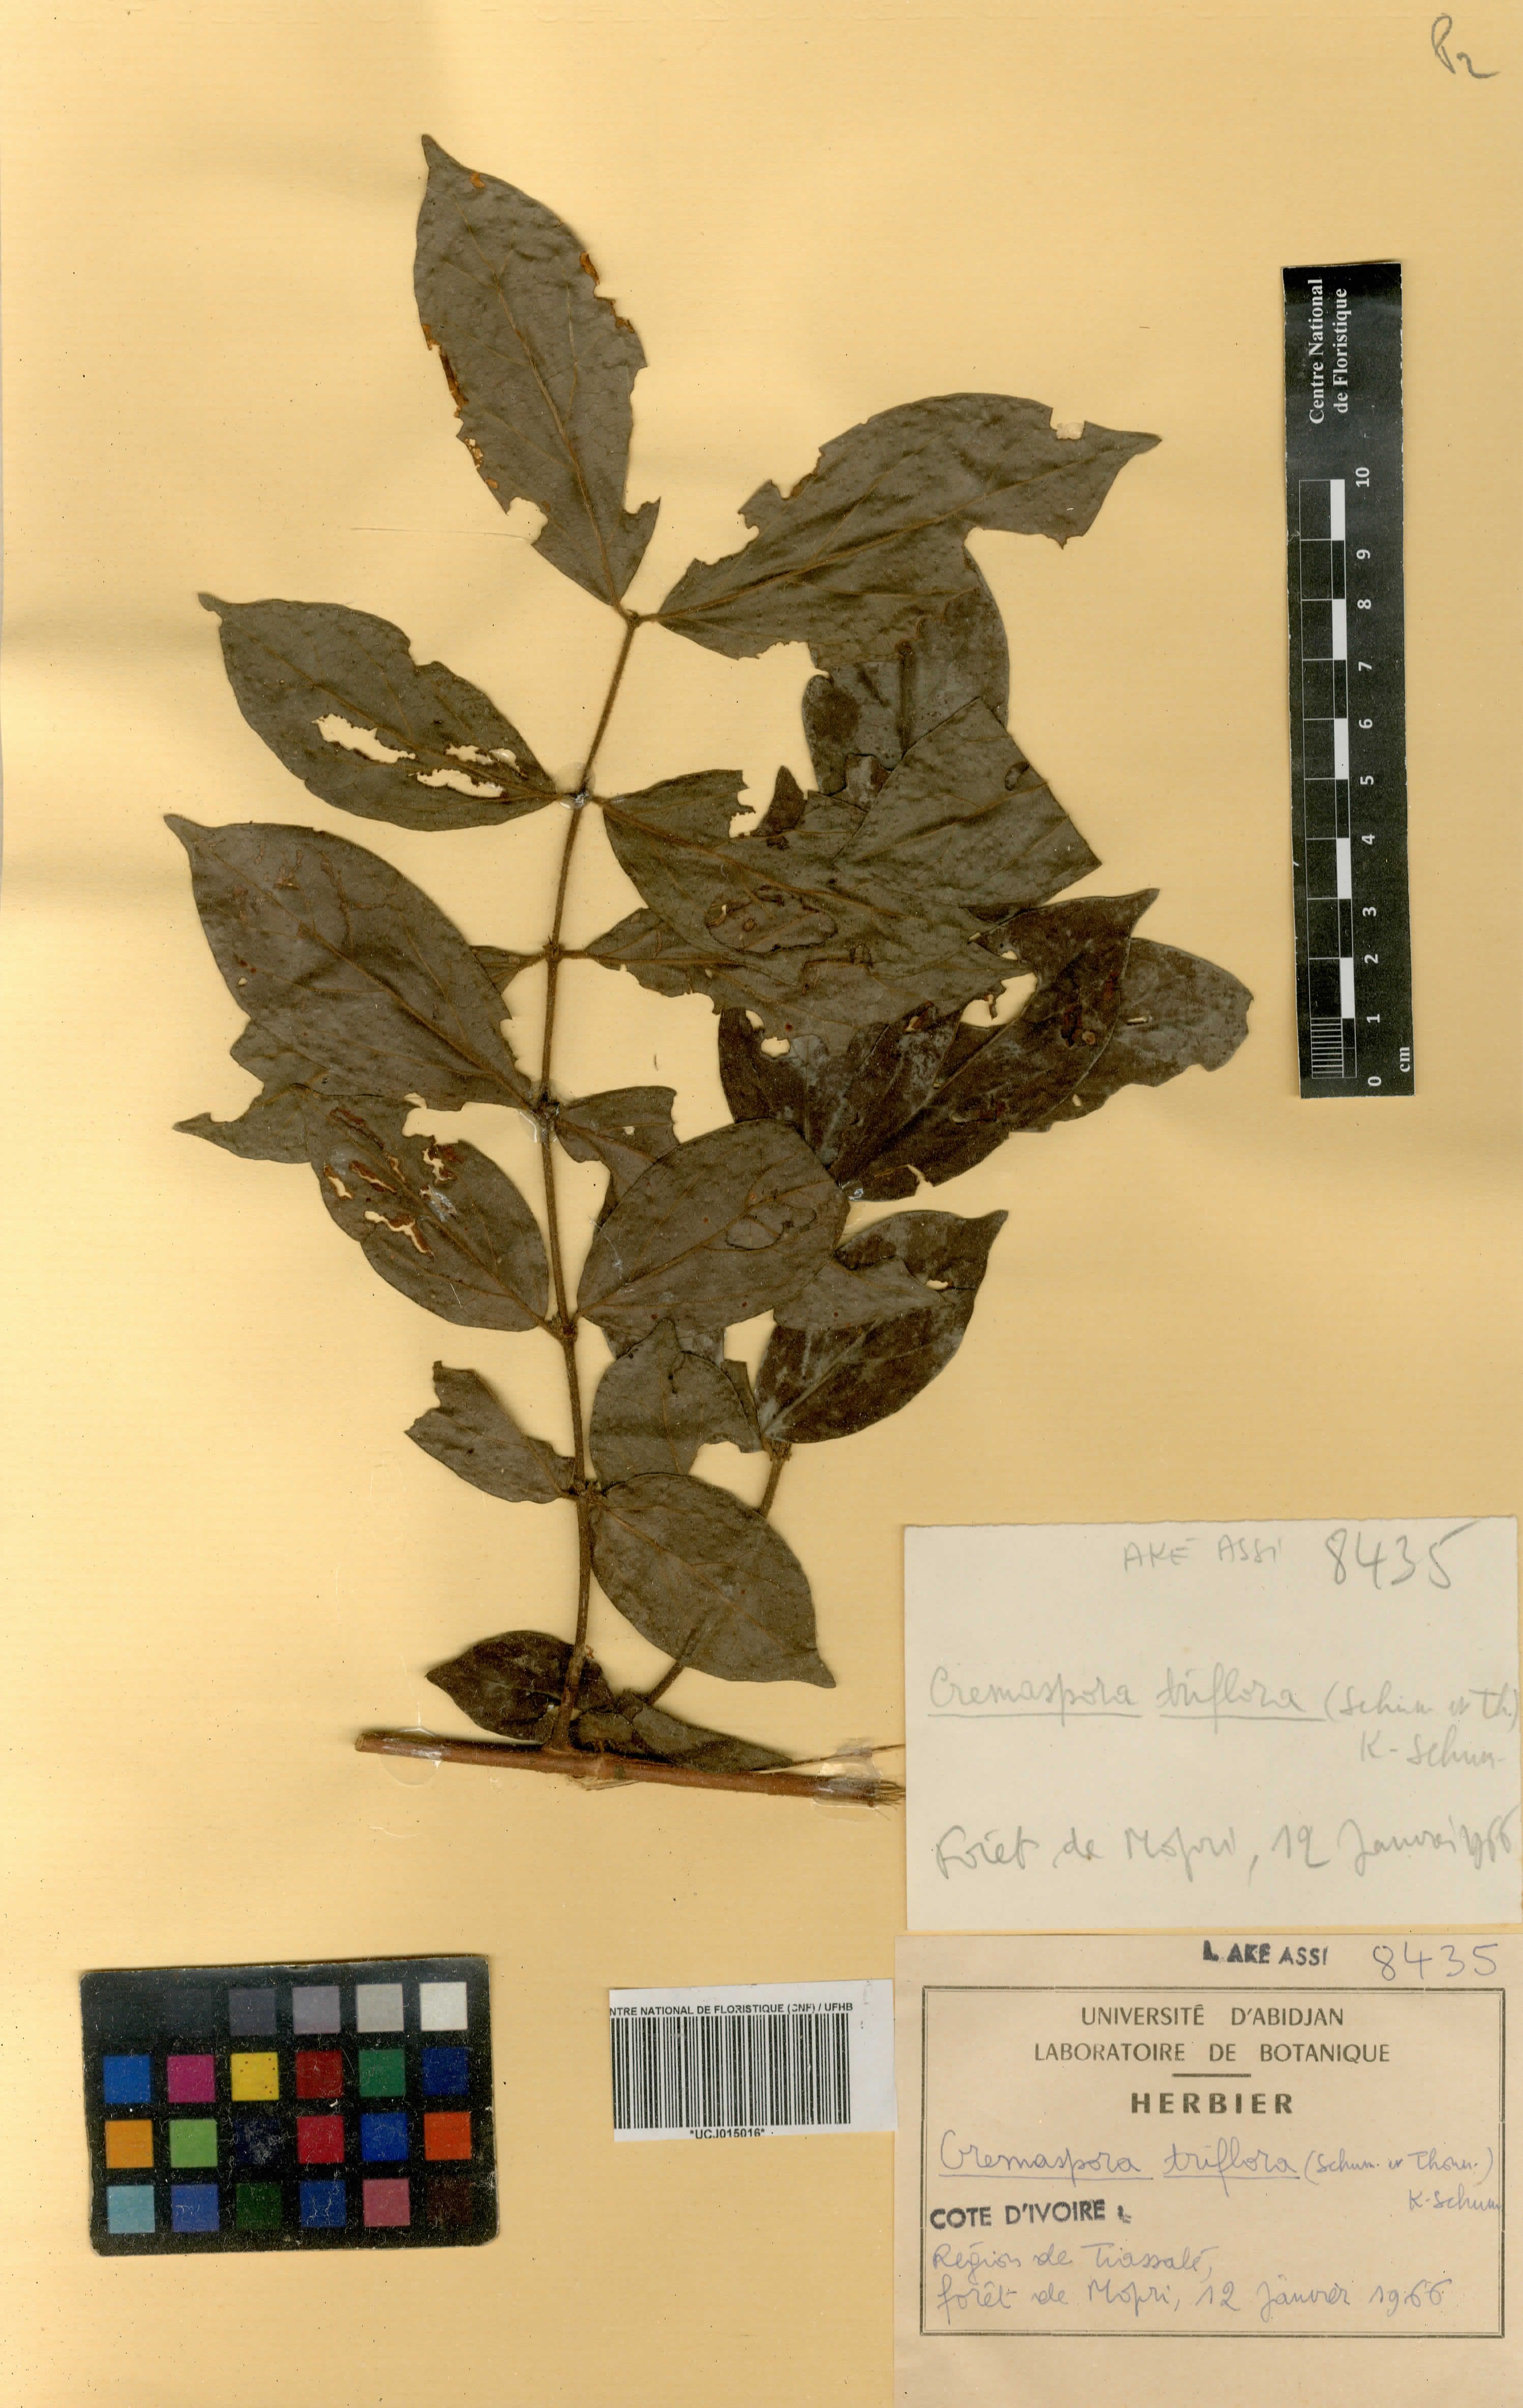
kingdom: Plantae
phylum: Tracheophyta
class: Magnoliopsida
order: Gentianales
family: Rubiaceae
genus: Cremaspora
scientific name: Cremaspora triflora
